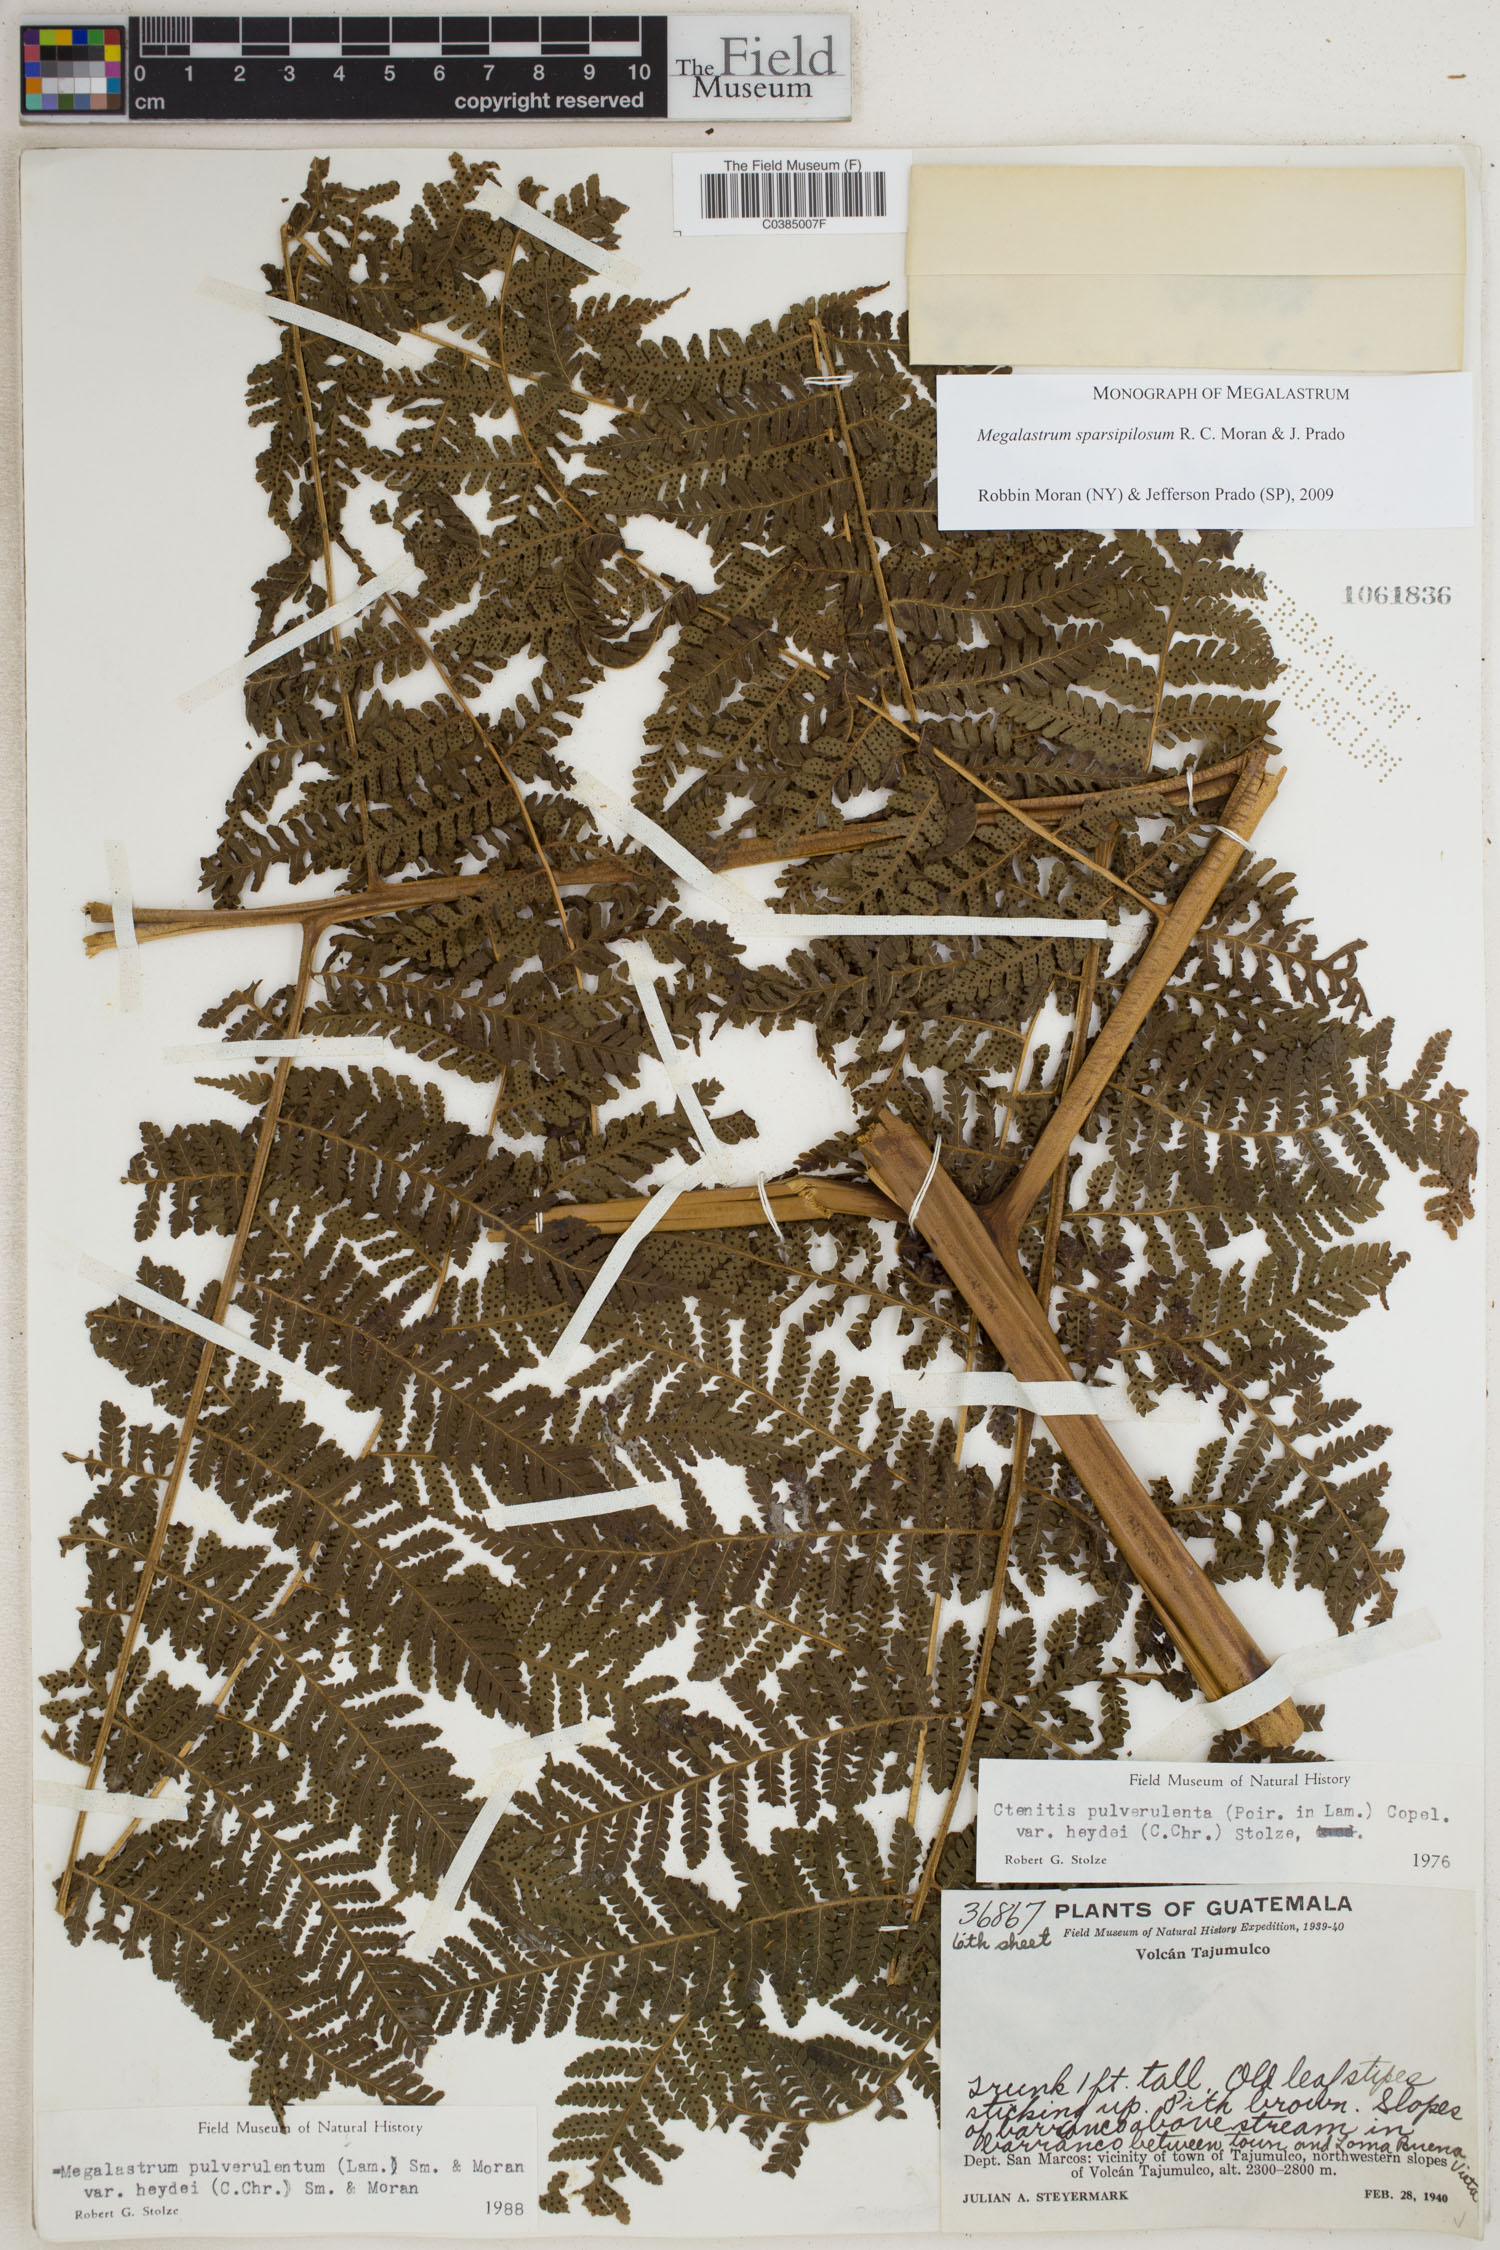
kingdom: Plantae
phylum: Tracheophyta
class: Polypodiopsida
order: Polypodiales
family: Dryopteridaceae
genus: Megalastrum
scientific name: Megalastrum sparsipilosum
